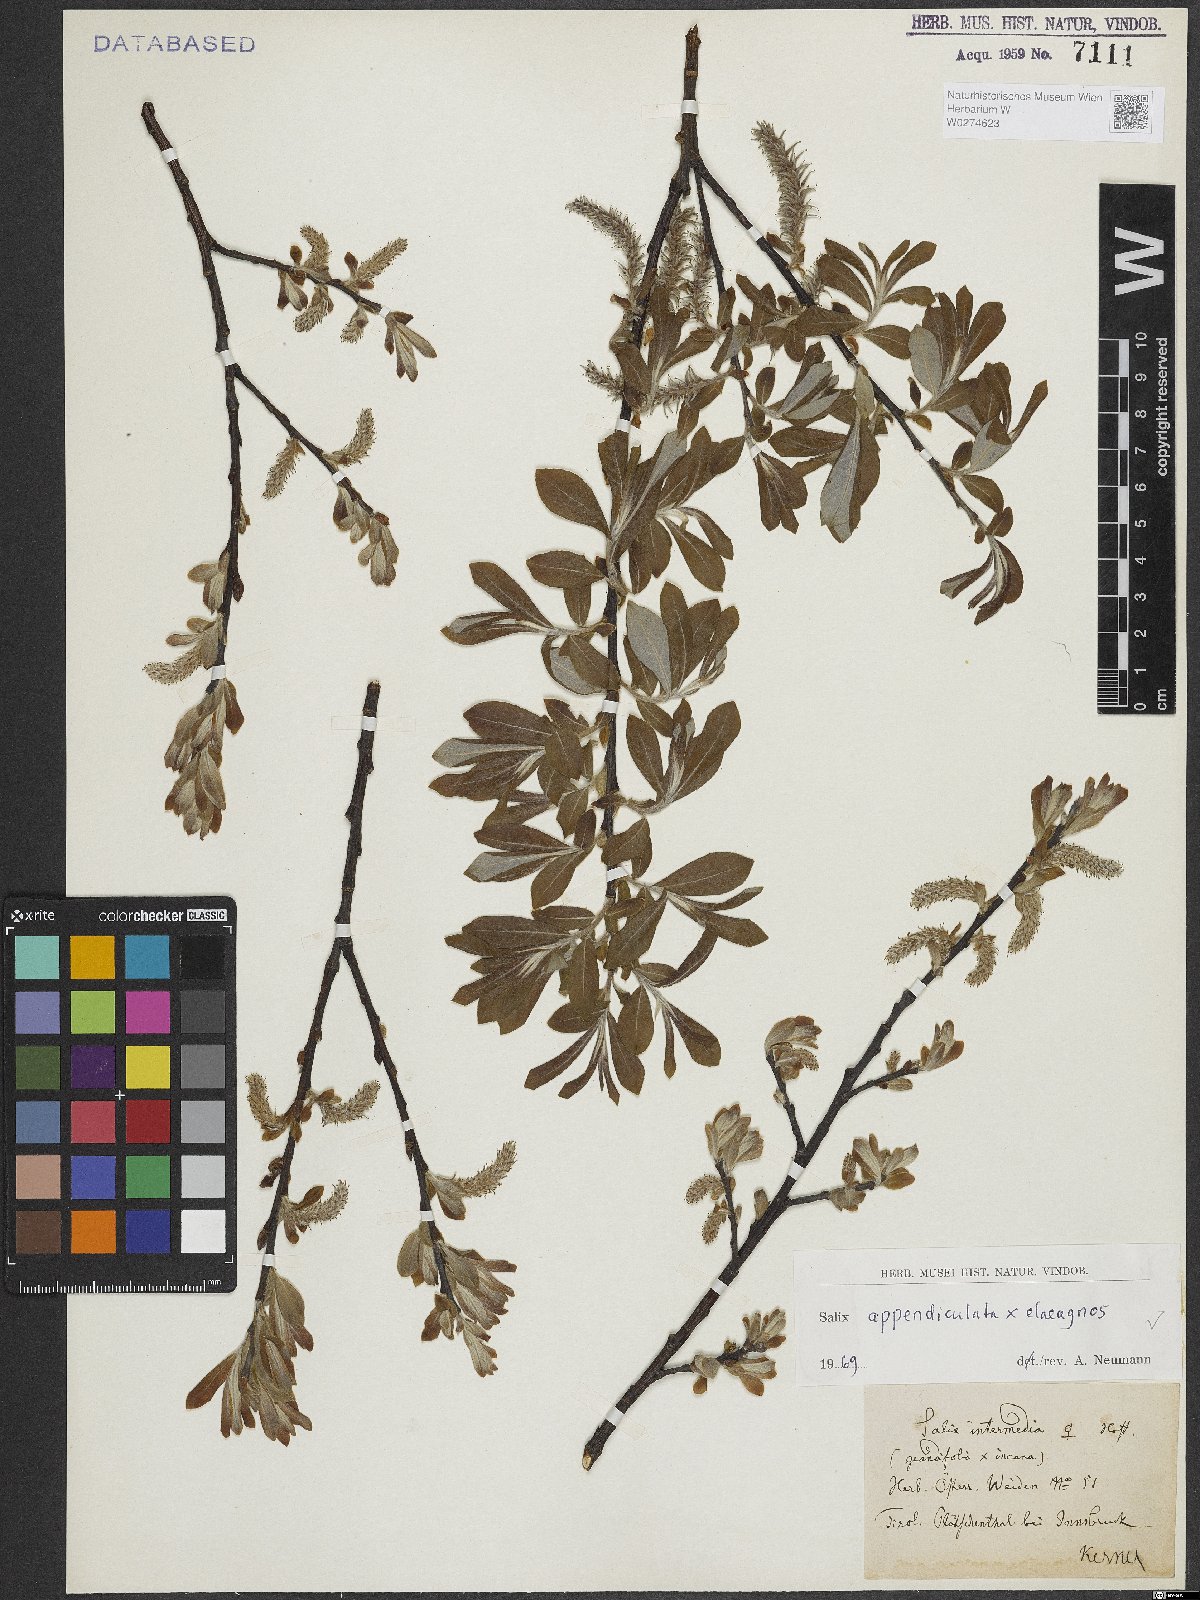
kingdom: Plantae
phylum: Tracheophyta
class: Magnoliopsida
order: Malpighiales
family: Salicaceae
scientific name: Salicaceae
